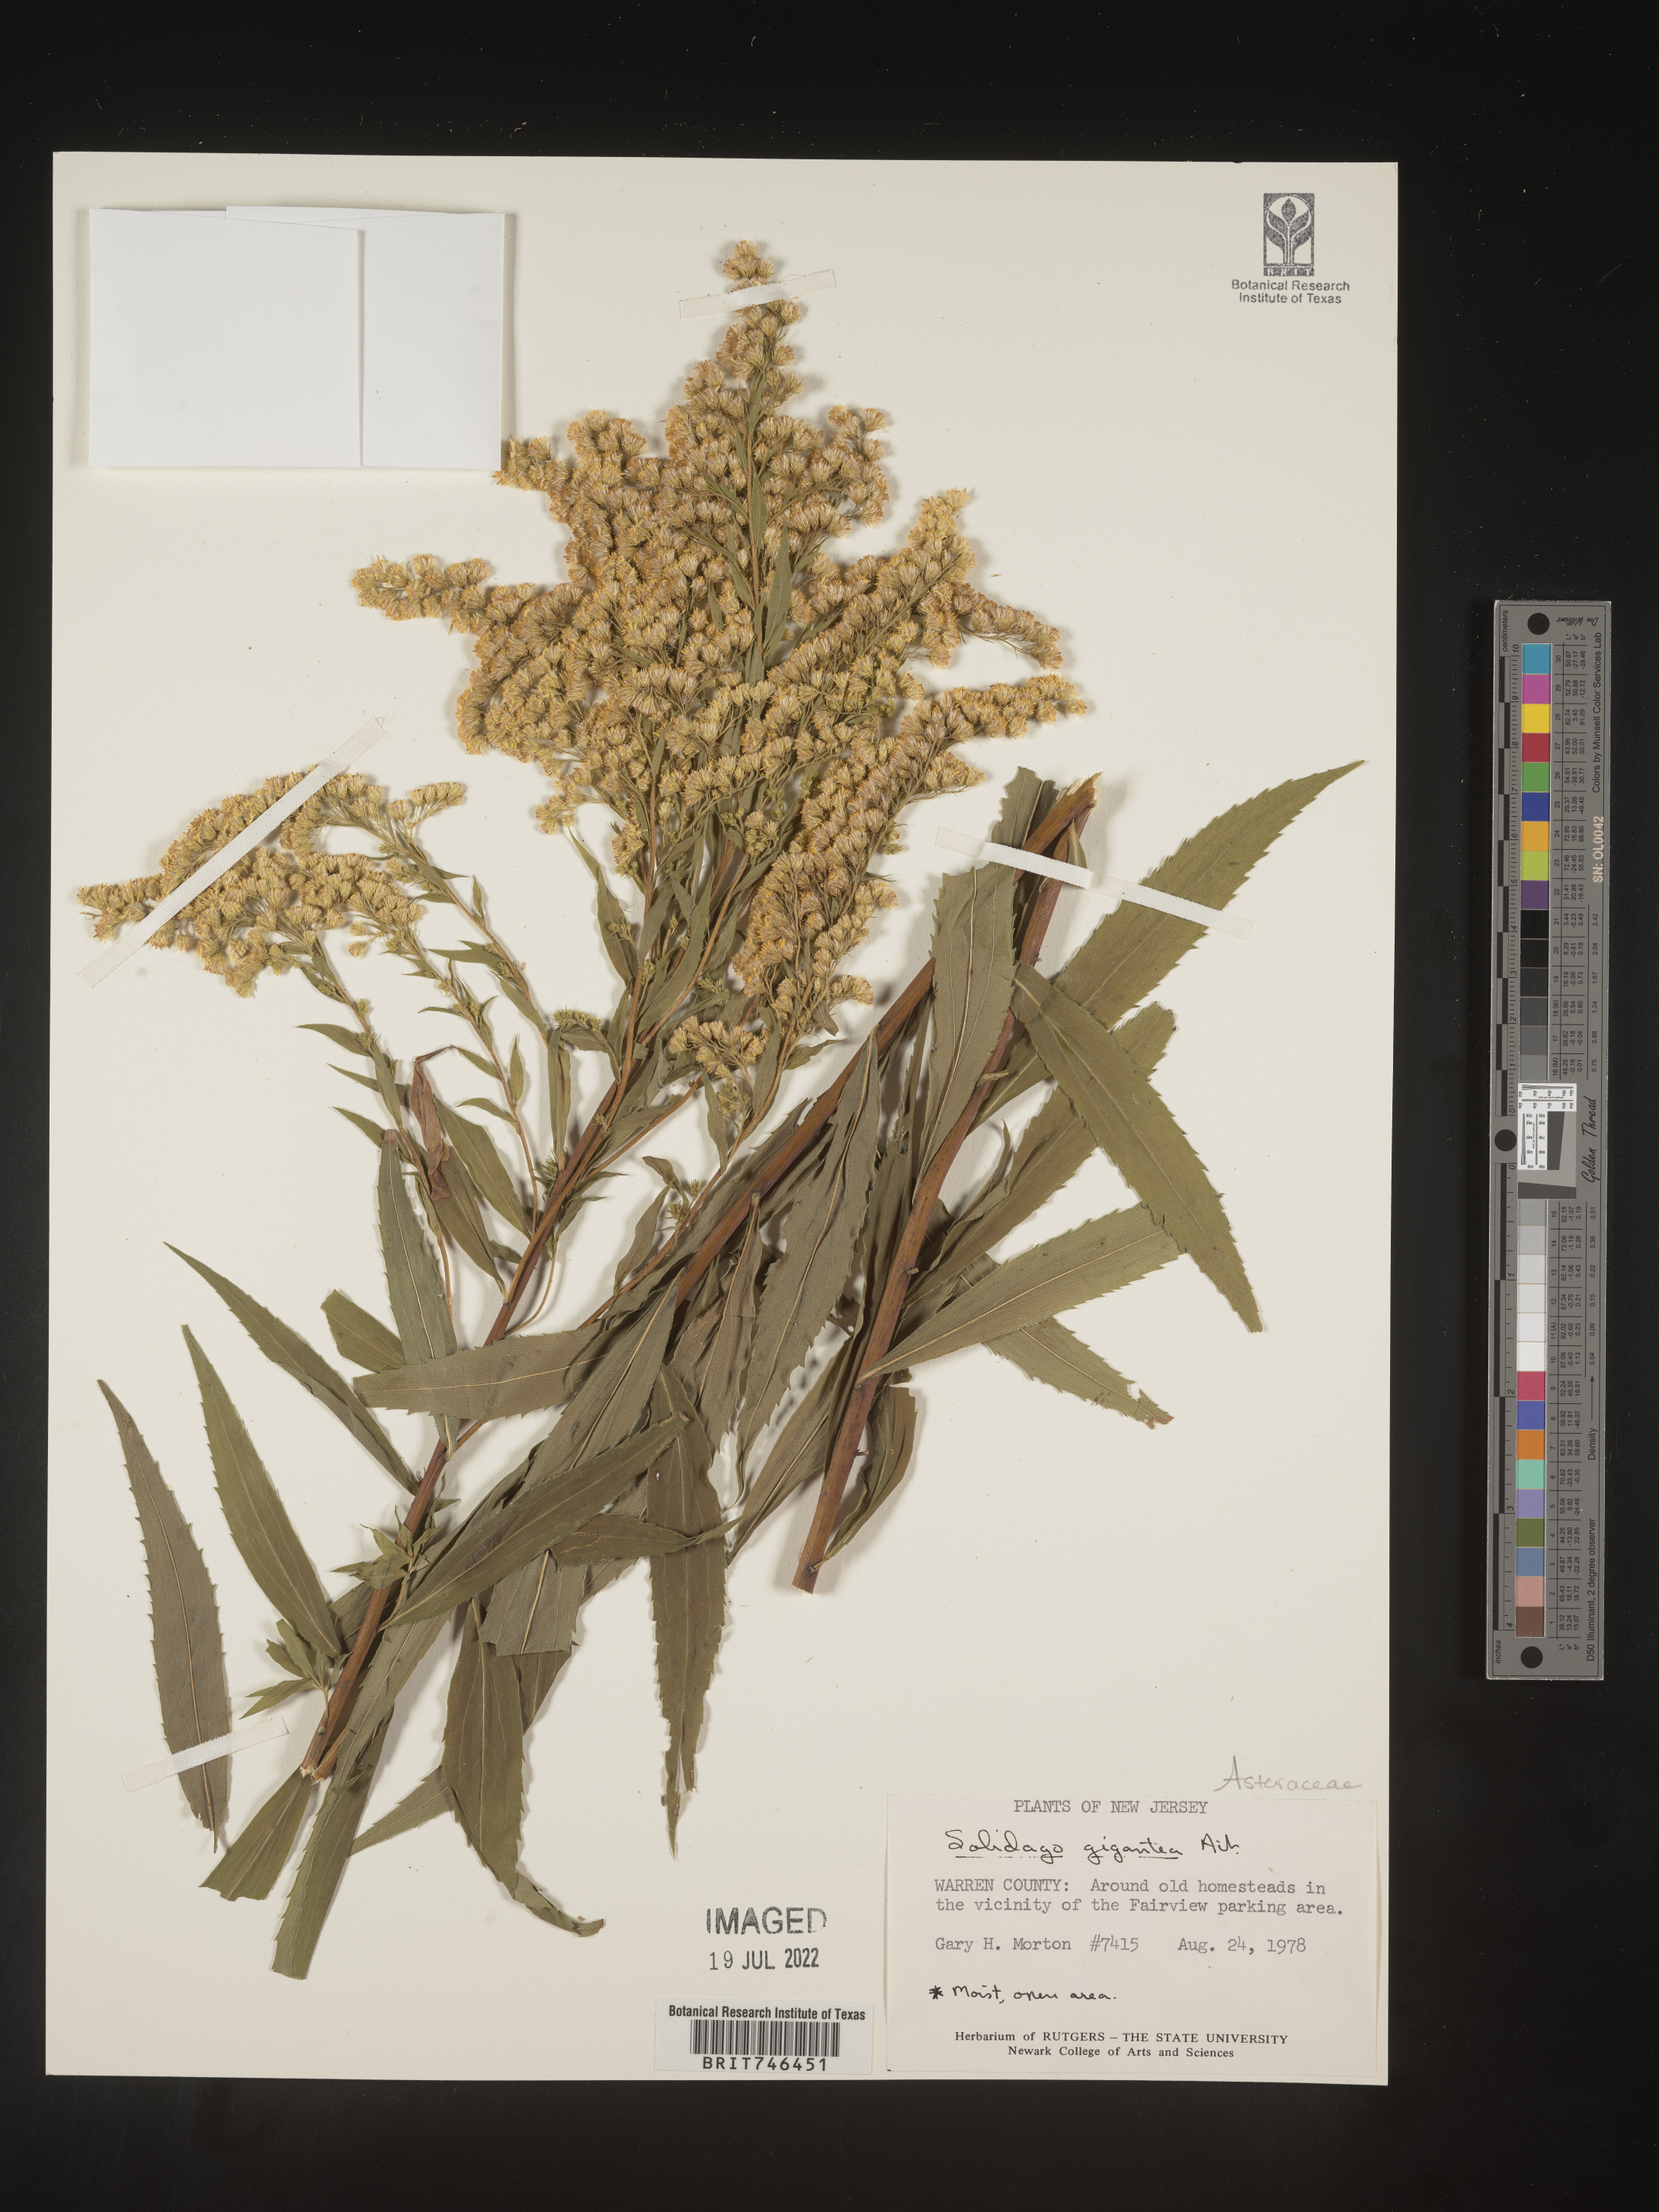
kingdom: Plantae
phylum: Tracheophyta
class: Magnoliopsida
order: Asterales
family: Asteraceae
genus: Solidago
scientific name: Solidago gigantea
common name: Giant goldenrod
